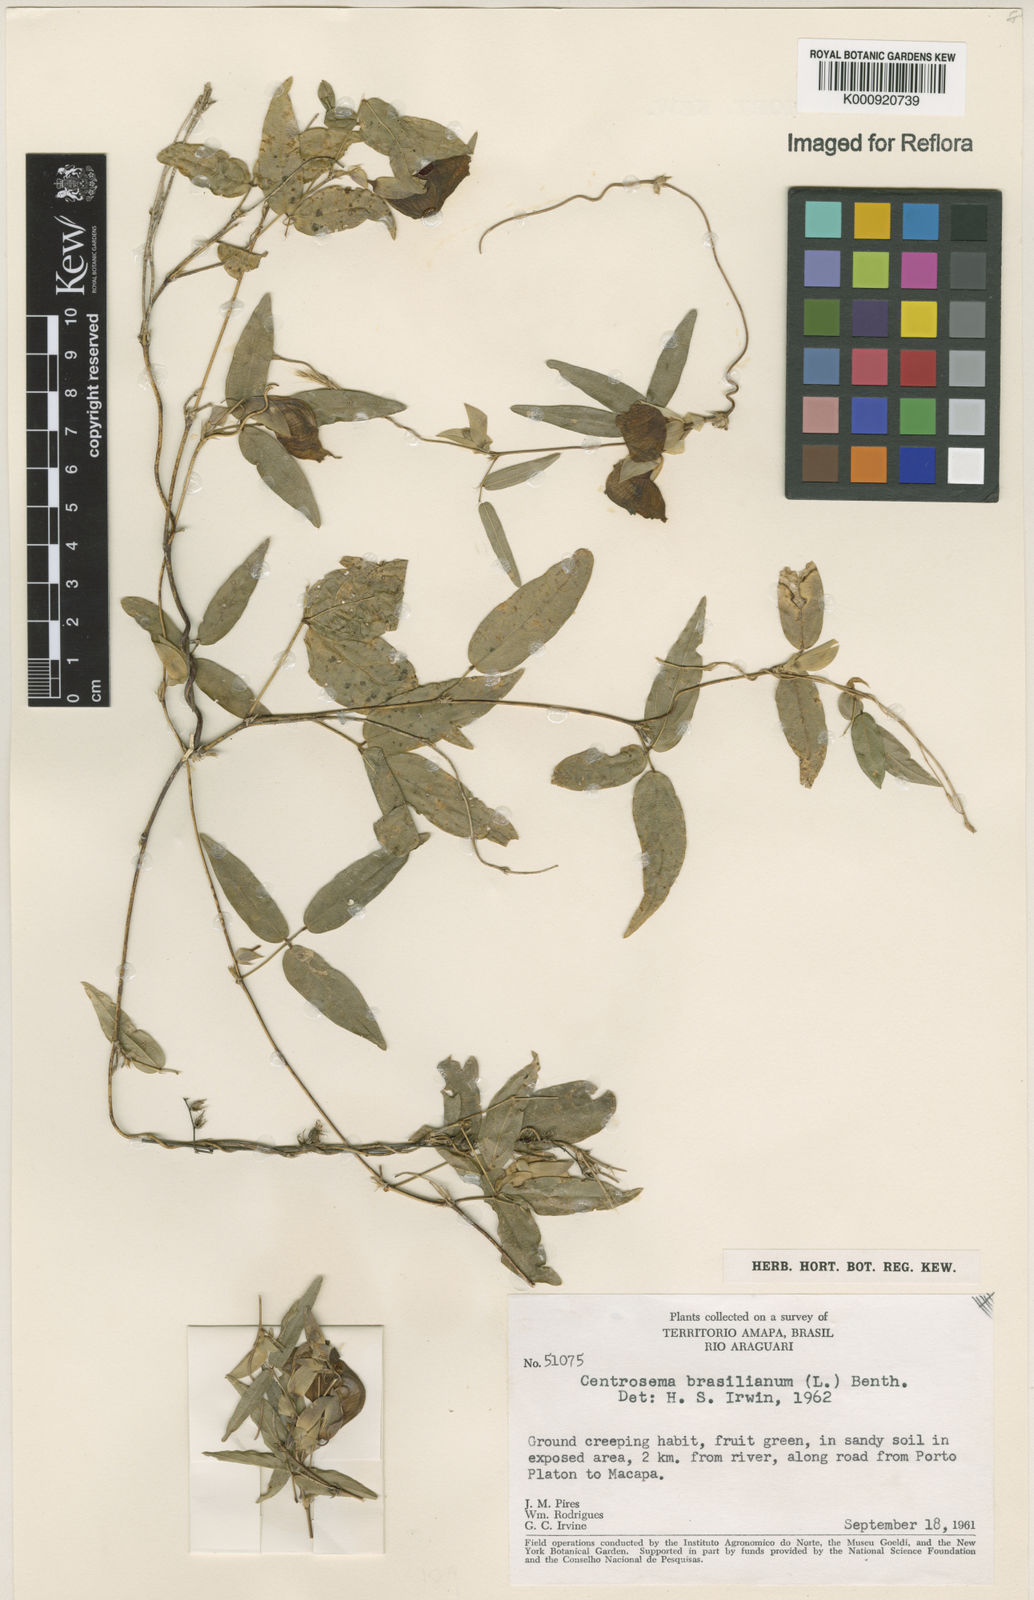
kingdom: Plantae
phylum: Tracheophyta
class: Magnoliopsida
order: Fabales
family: Fabaceae
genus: Centrosema
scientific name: Centrosema brasilianum
